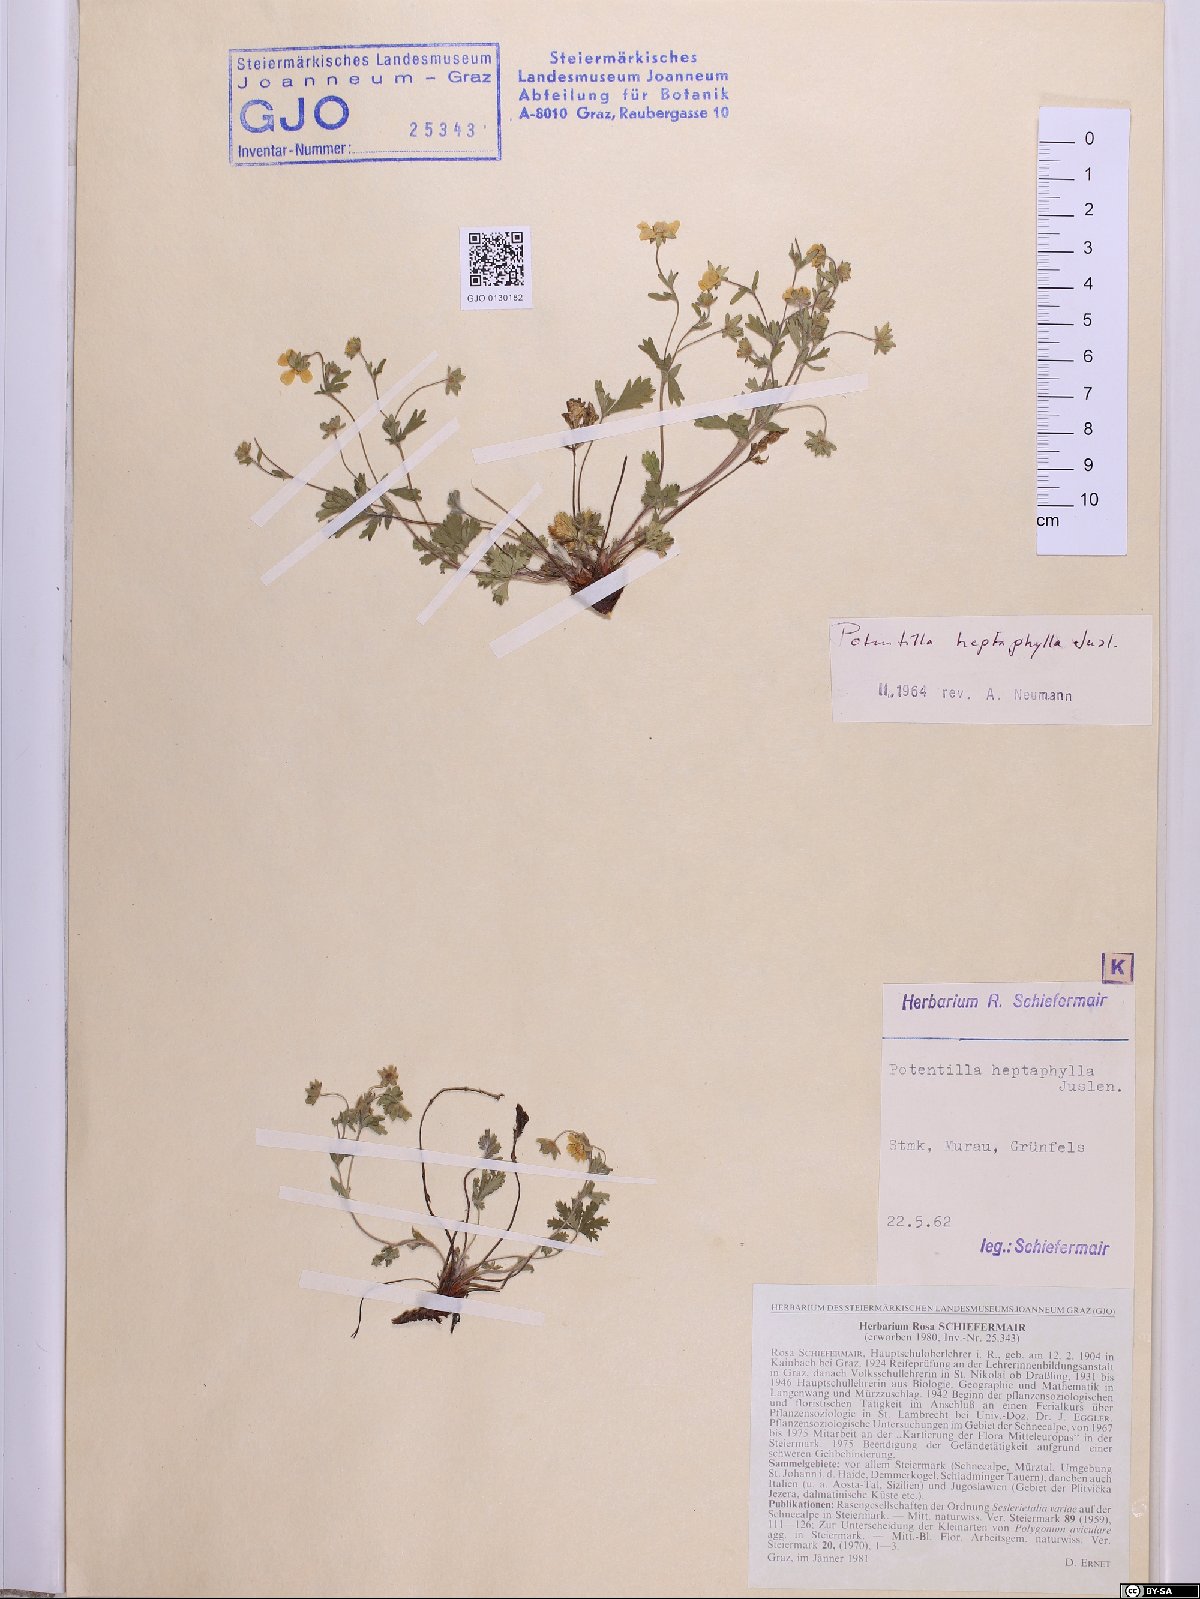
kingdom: Plantae
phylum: Tracheophyta
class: Magnoliopsida
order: Rosales
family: Rosaceae
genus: Potentilla
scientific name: Potentilla heptaphylla
